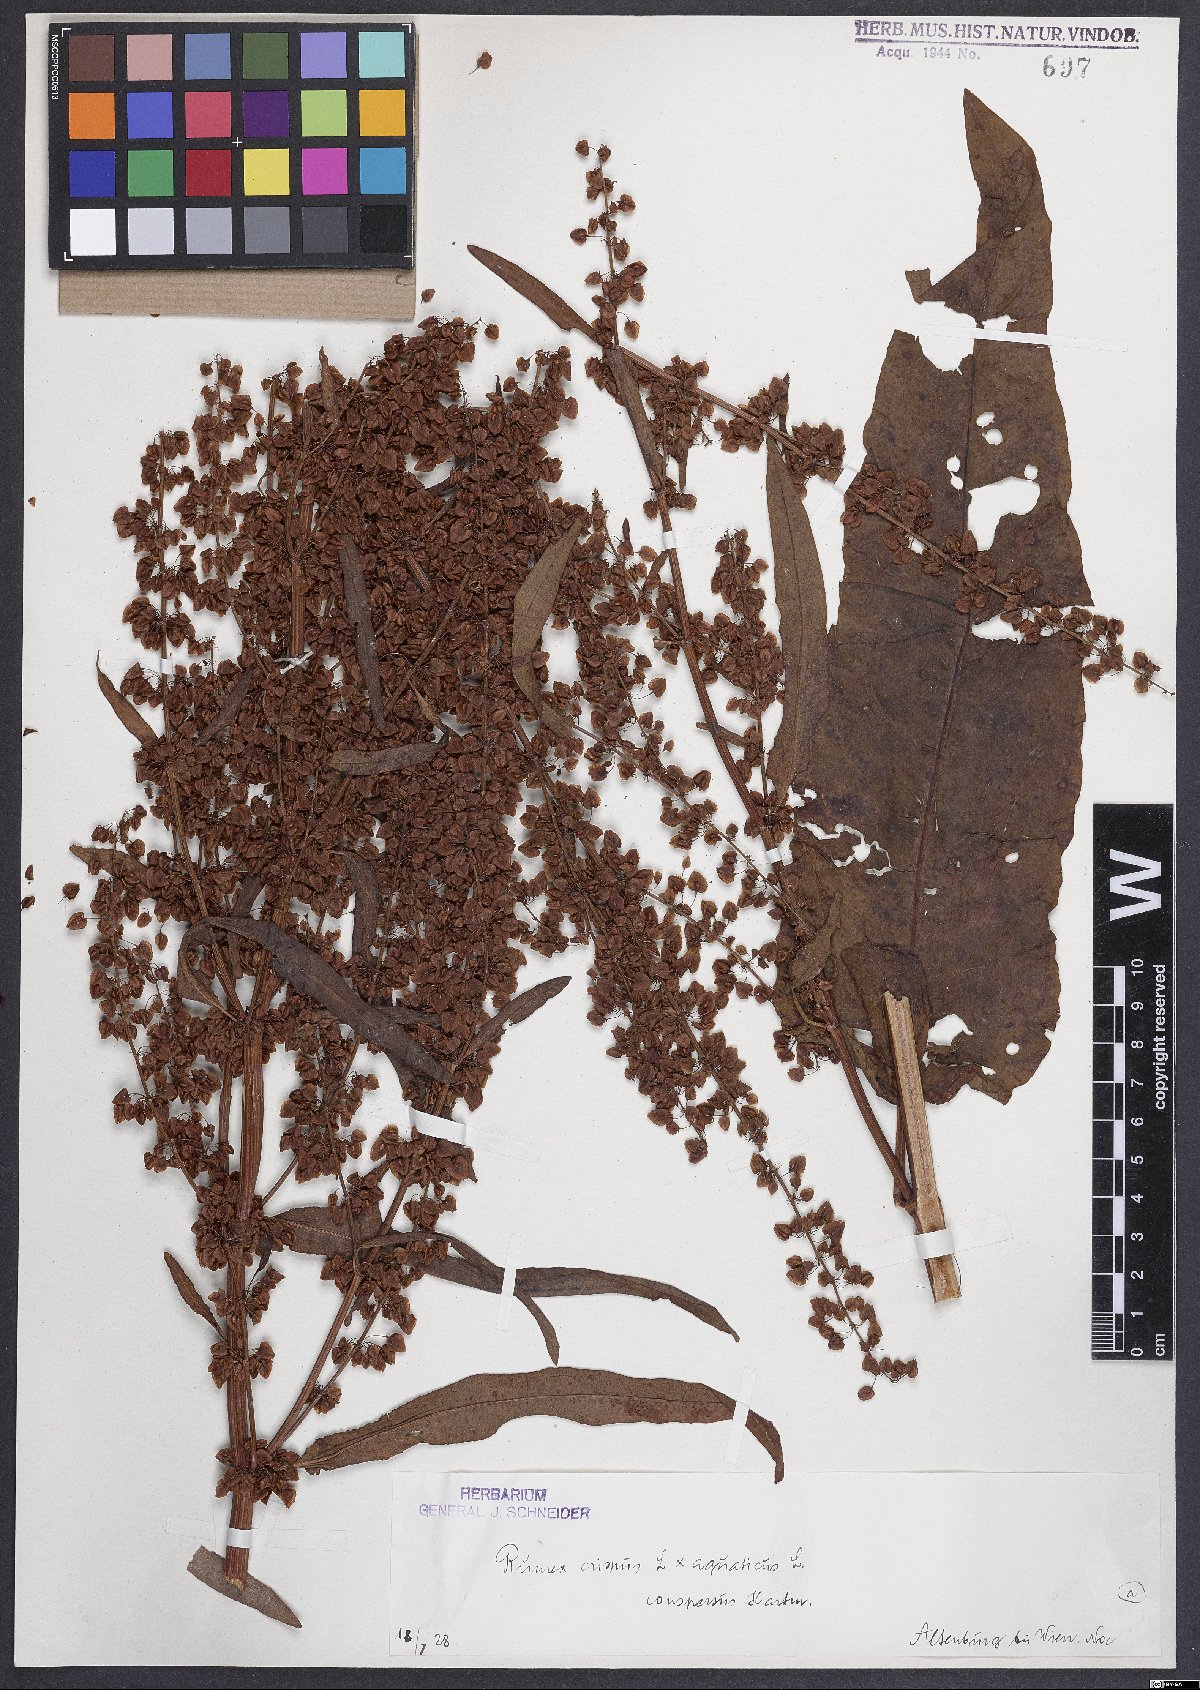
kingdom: Plantae
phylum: Tracheophyta
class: Magnoliopsida
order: Caryophyllales
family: Polygonaceae
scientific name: Polygonaceae
